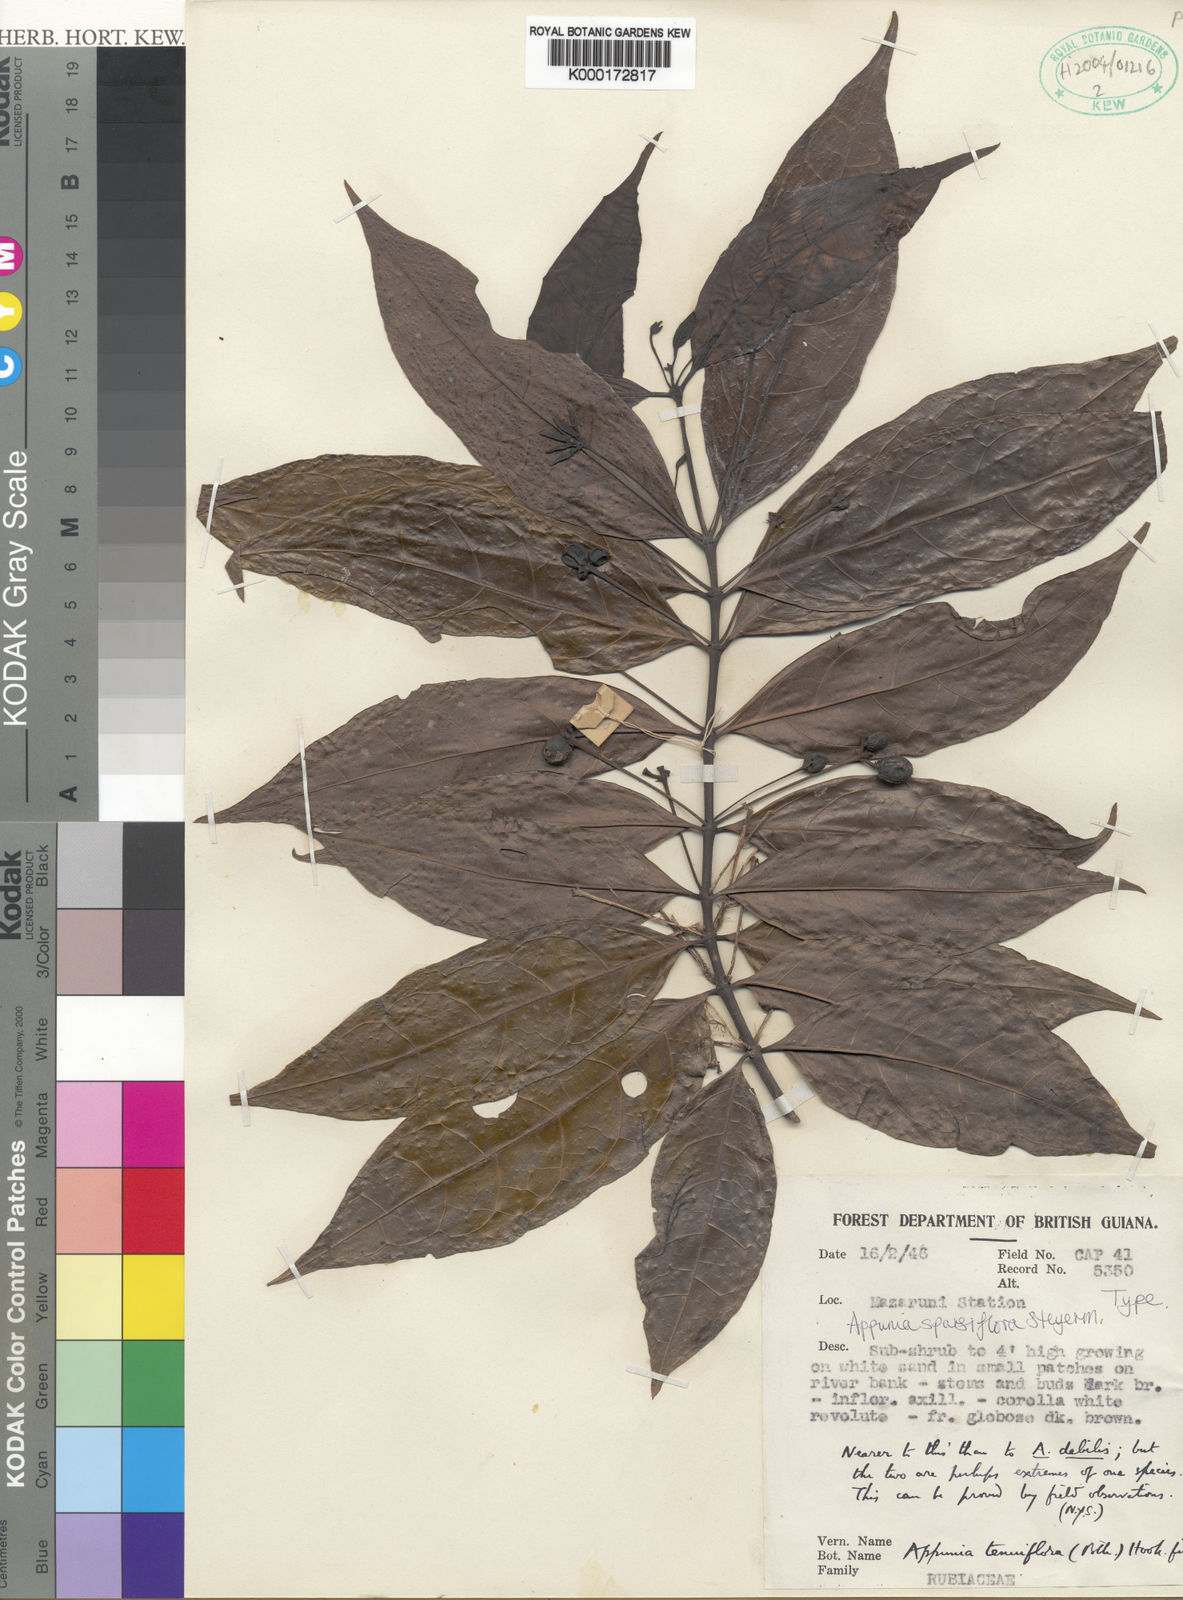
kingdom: Plantae
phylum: Tracheophyta
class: Magnoliopsida
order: Gentianales
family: Rubiaceae
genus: Appunia
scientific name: Appunia tenuiflora
